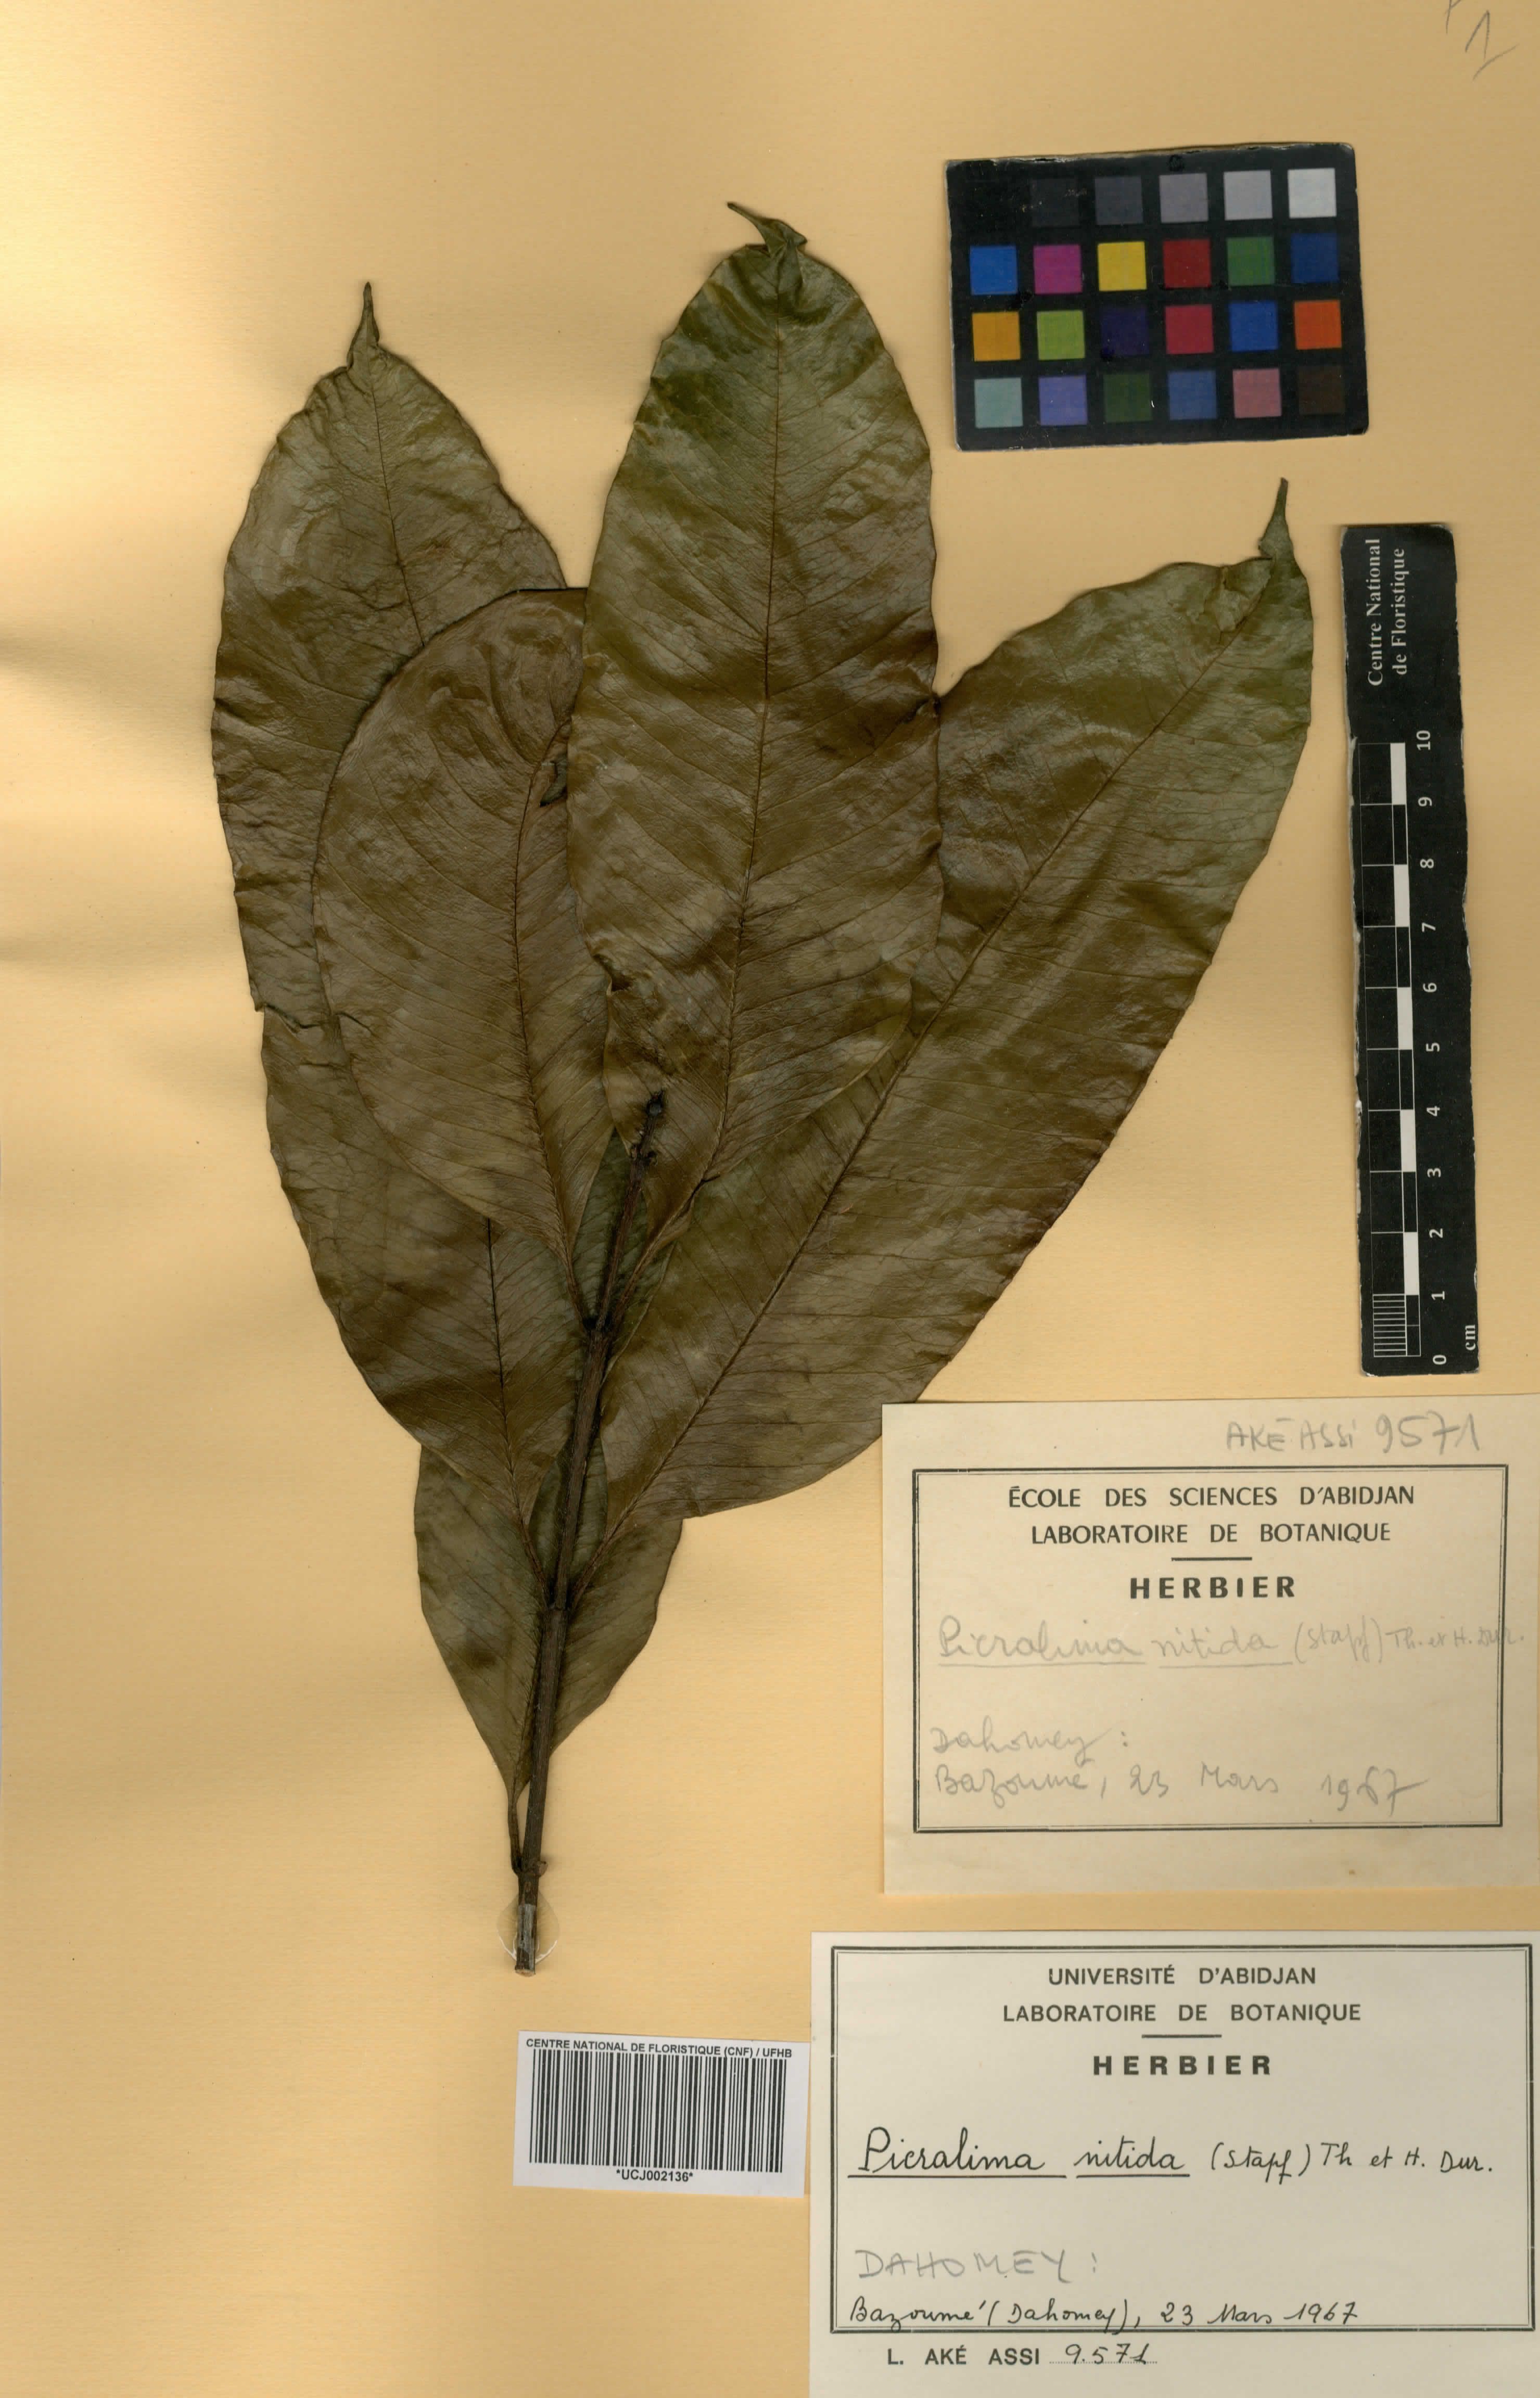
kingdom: Plantae
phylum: Tracheophyta
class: Magnoliopsida
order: Gentianales
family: Apocynaceae
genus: Picralima
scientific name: Picralima nitida
